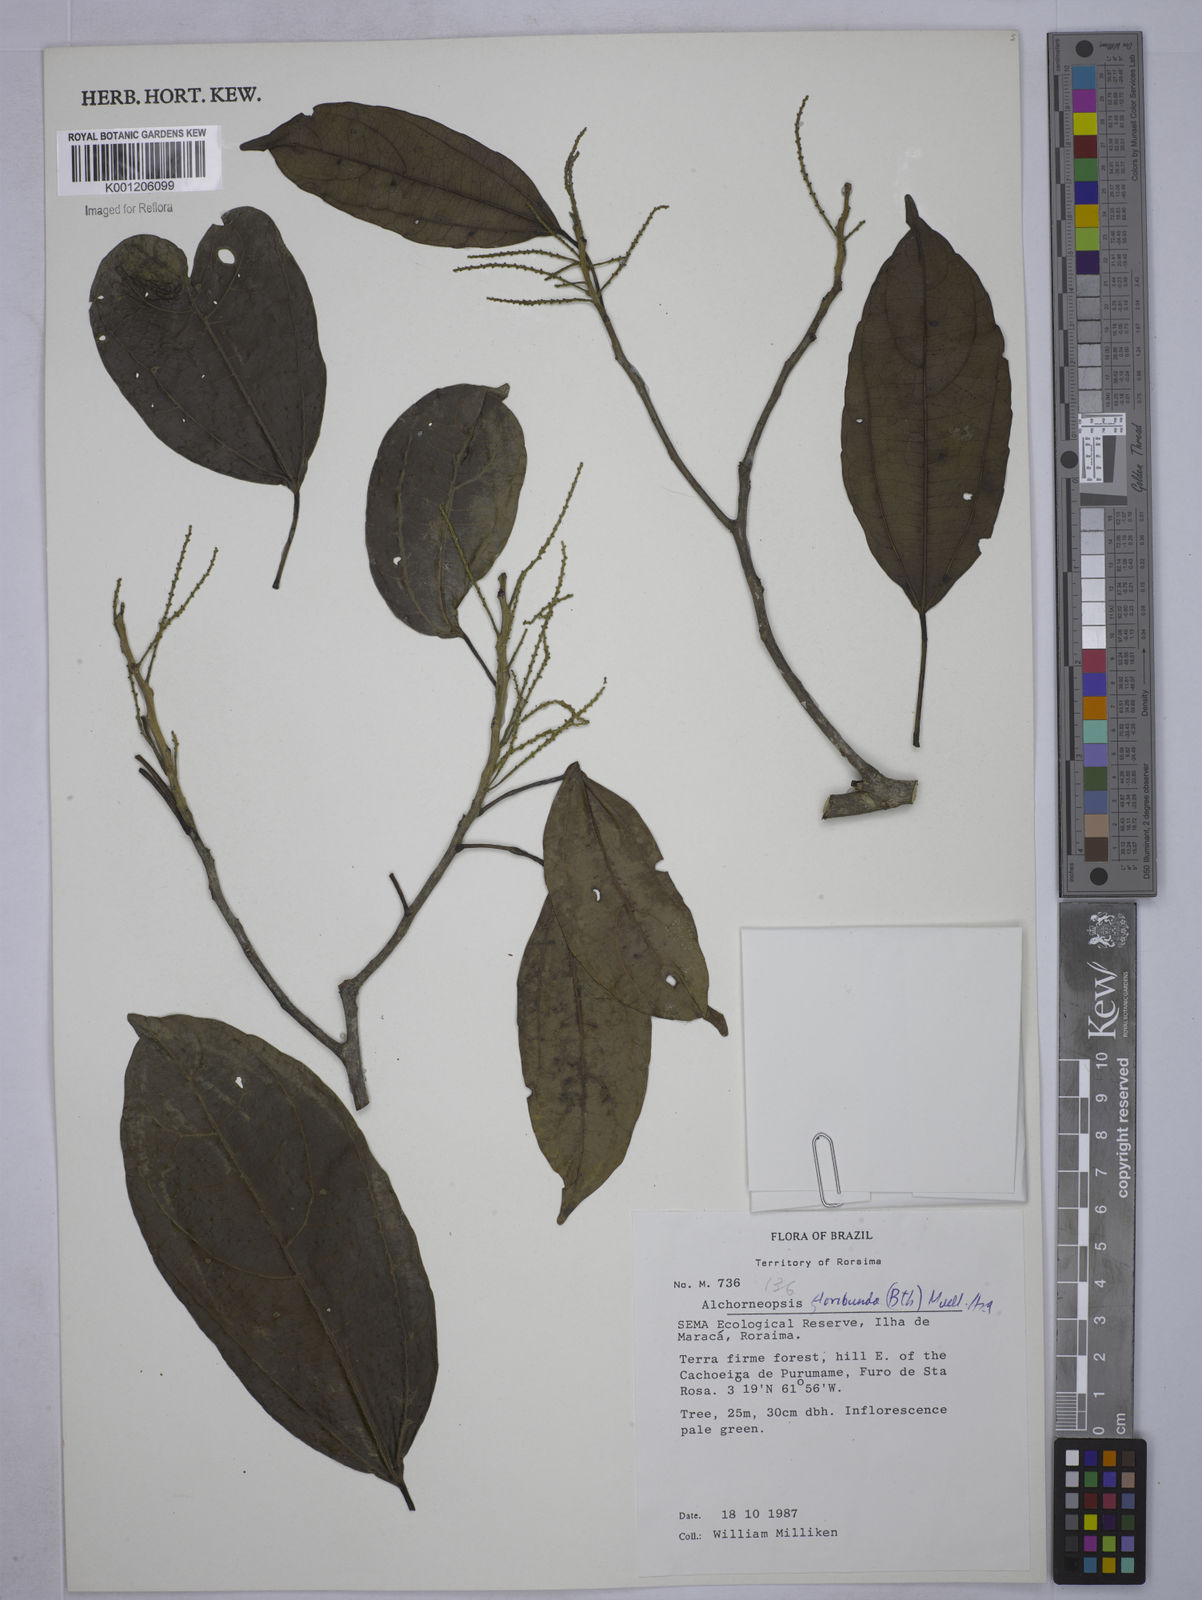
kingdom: Plantae
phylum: Tracheophyta
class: Magnoliopsida
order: Malpighiales
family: Euphorbiaceae
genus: Alchorneopsis
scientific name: Alchorneopsis
